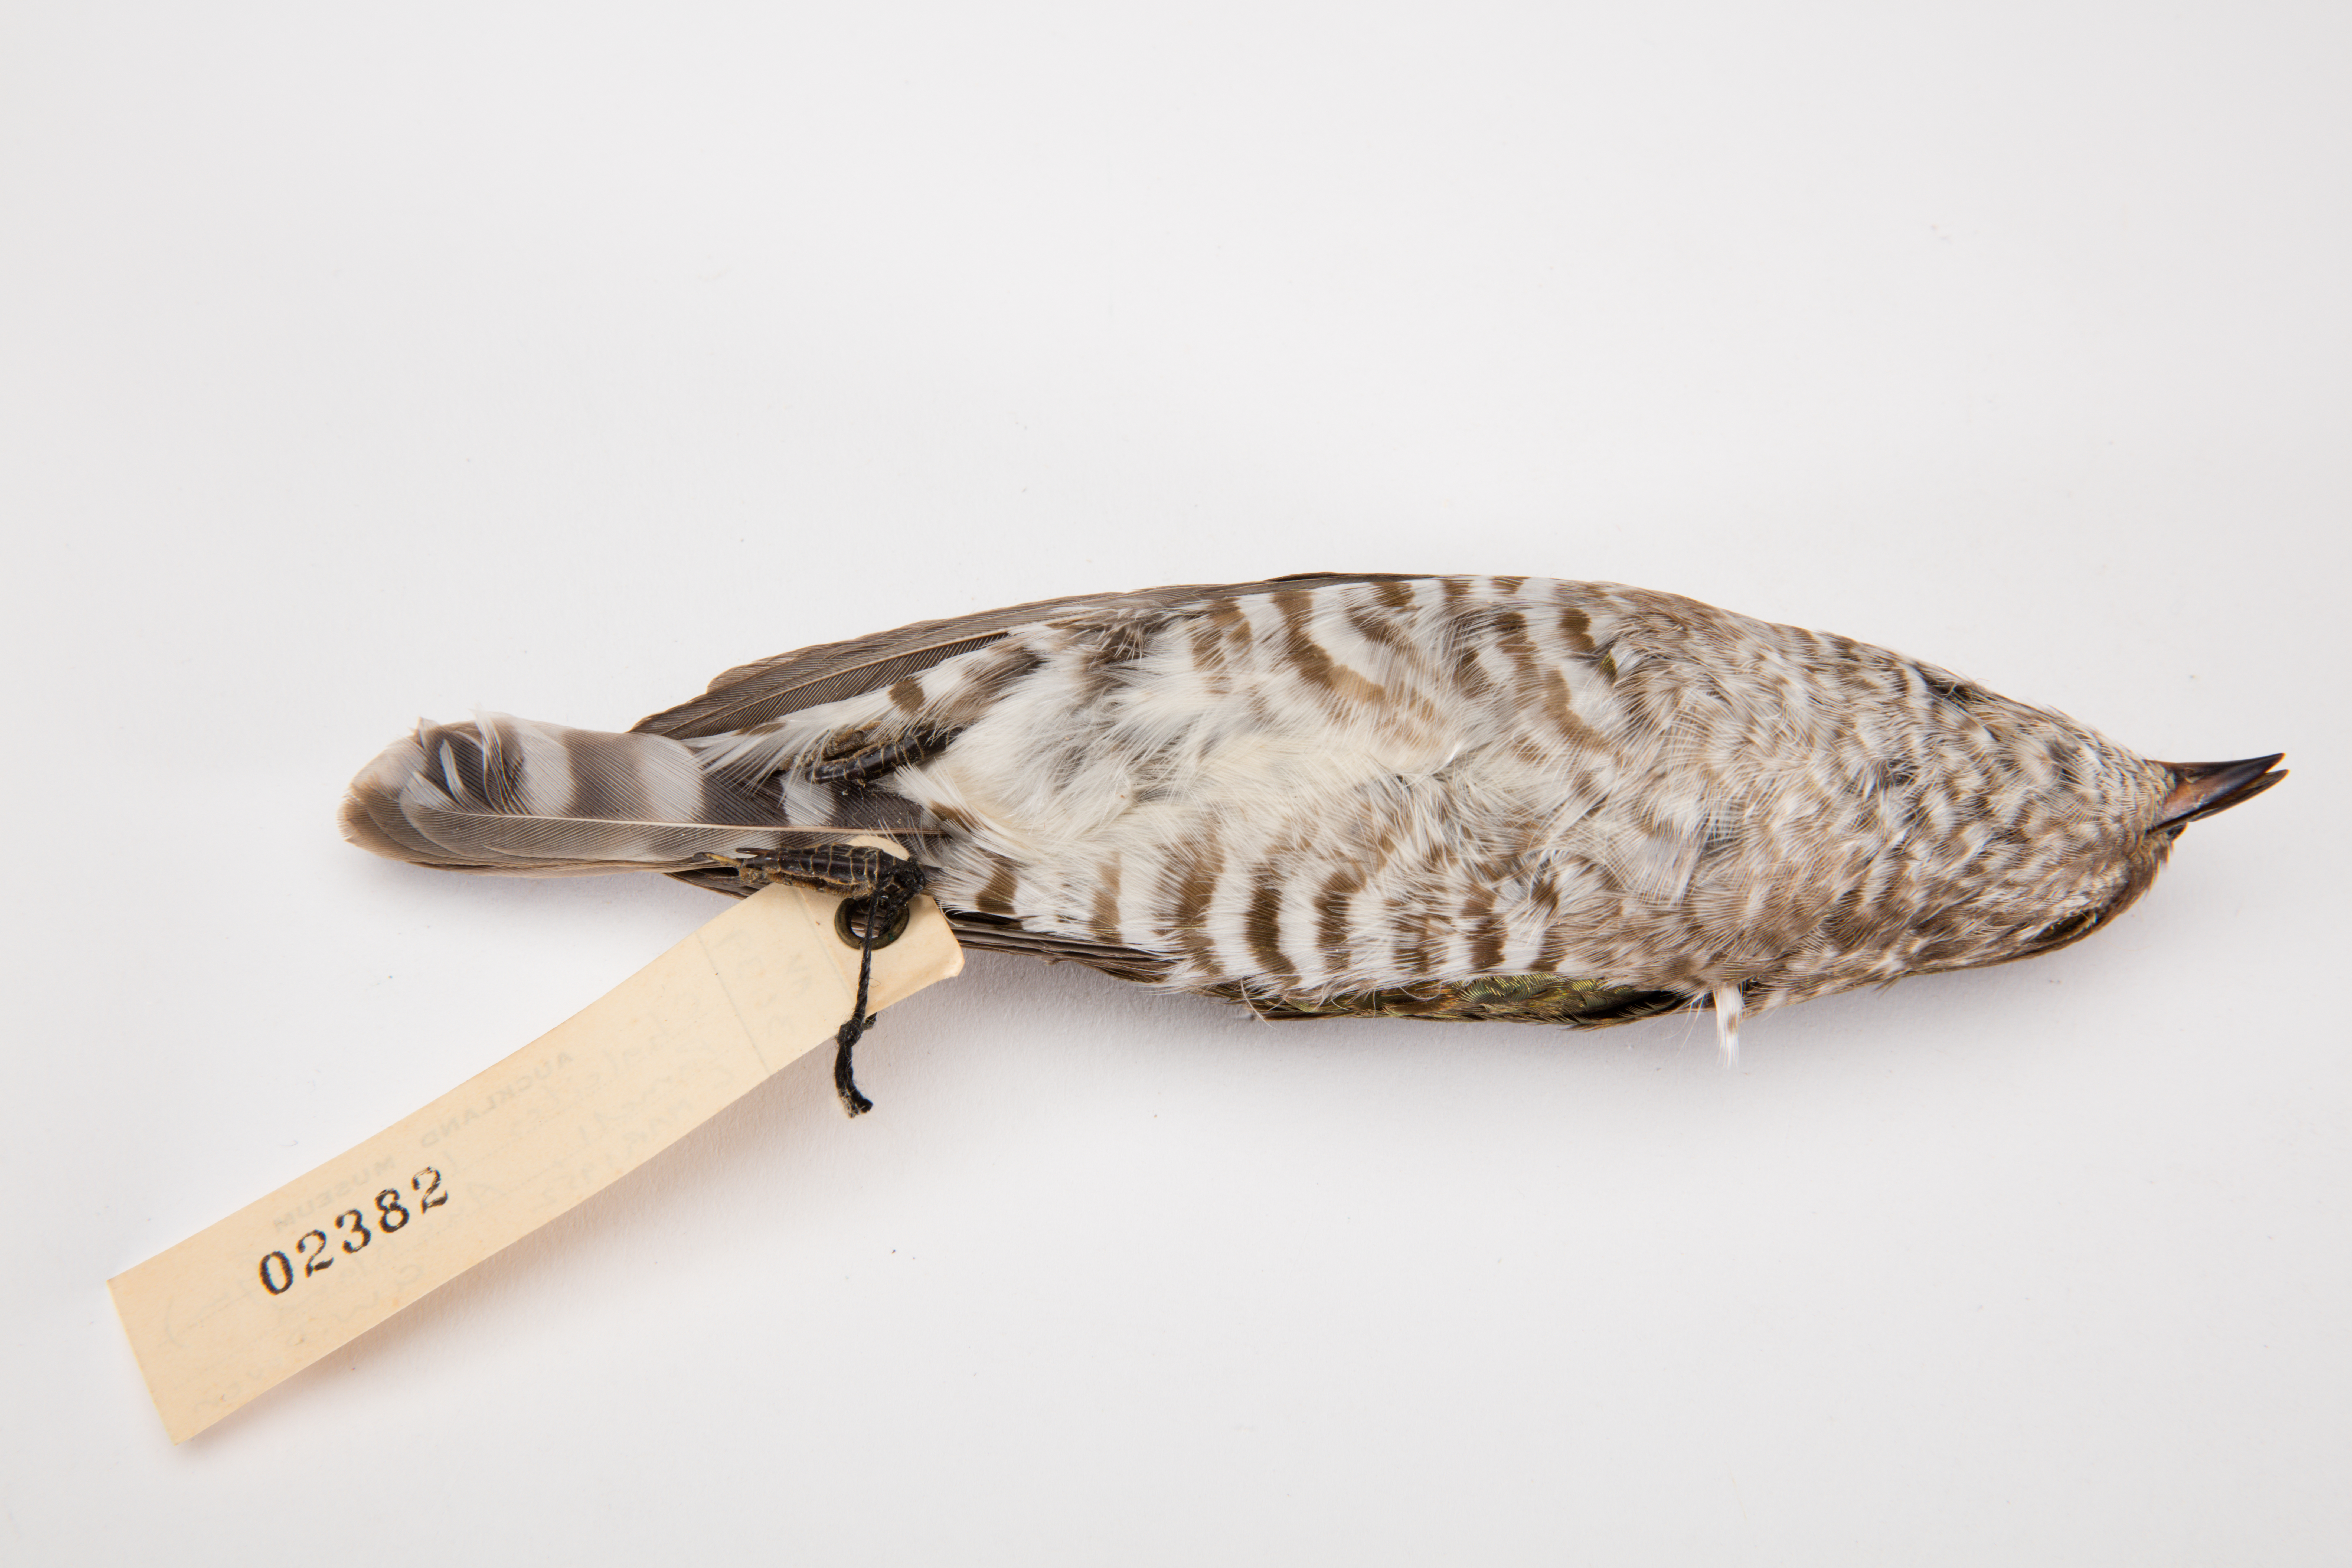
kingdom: Animalia
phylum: Chordata
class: Aves
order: Cuculiformes
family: Cuculidae
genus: Chrysococcyx
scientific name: Chrysococcyx lucidus
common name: Shining bronze cuckoo
